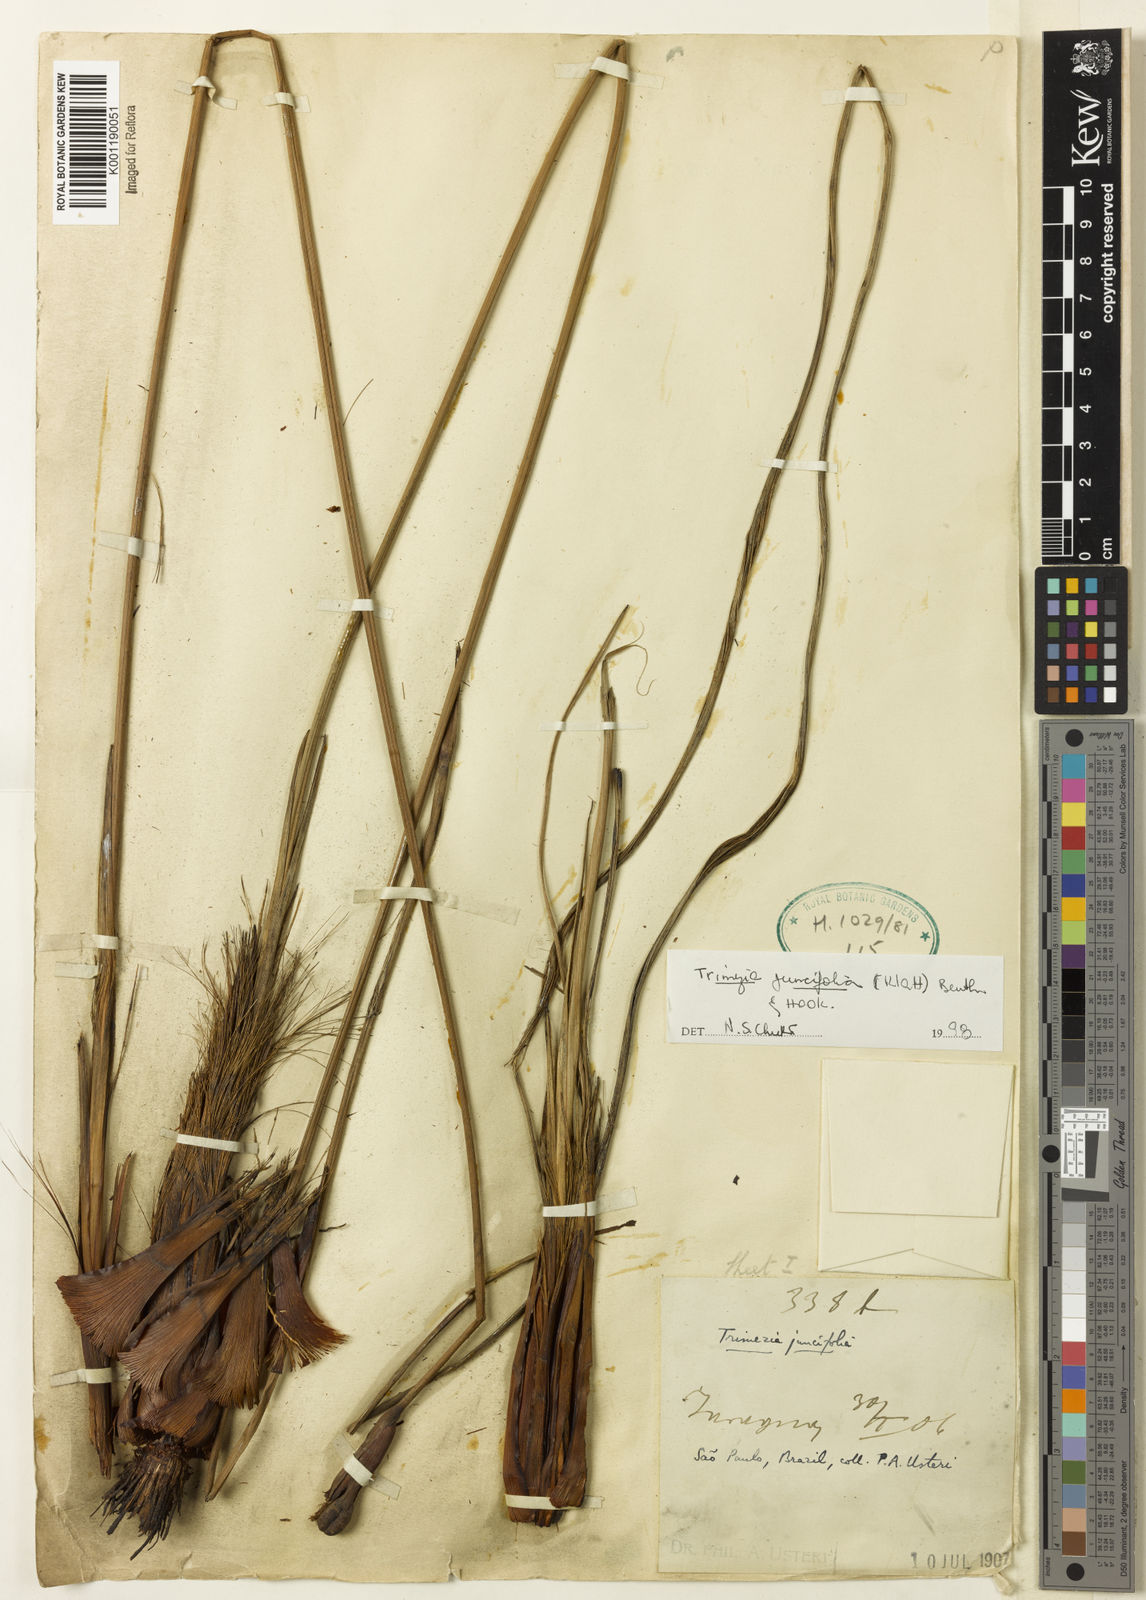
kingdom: Plantae
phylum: Tracheophyta
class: Liliopsida
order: Asparagales
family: Iridaceae
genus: Trimezia
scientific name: Trimezia juncifolia
